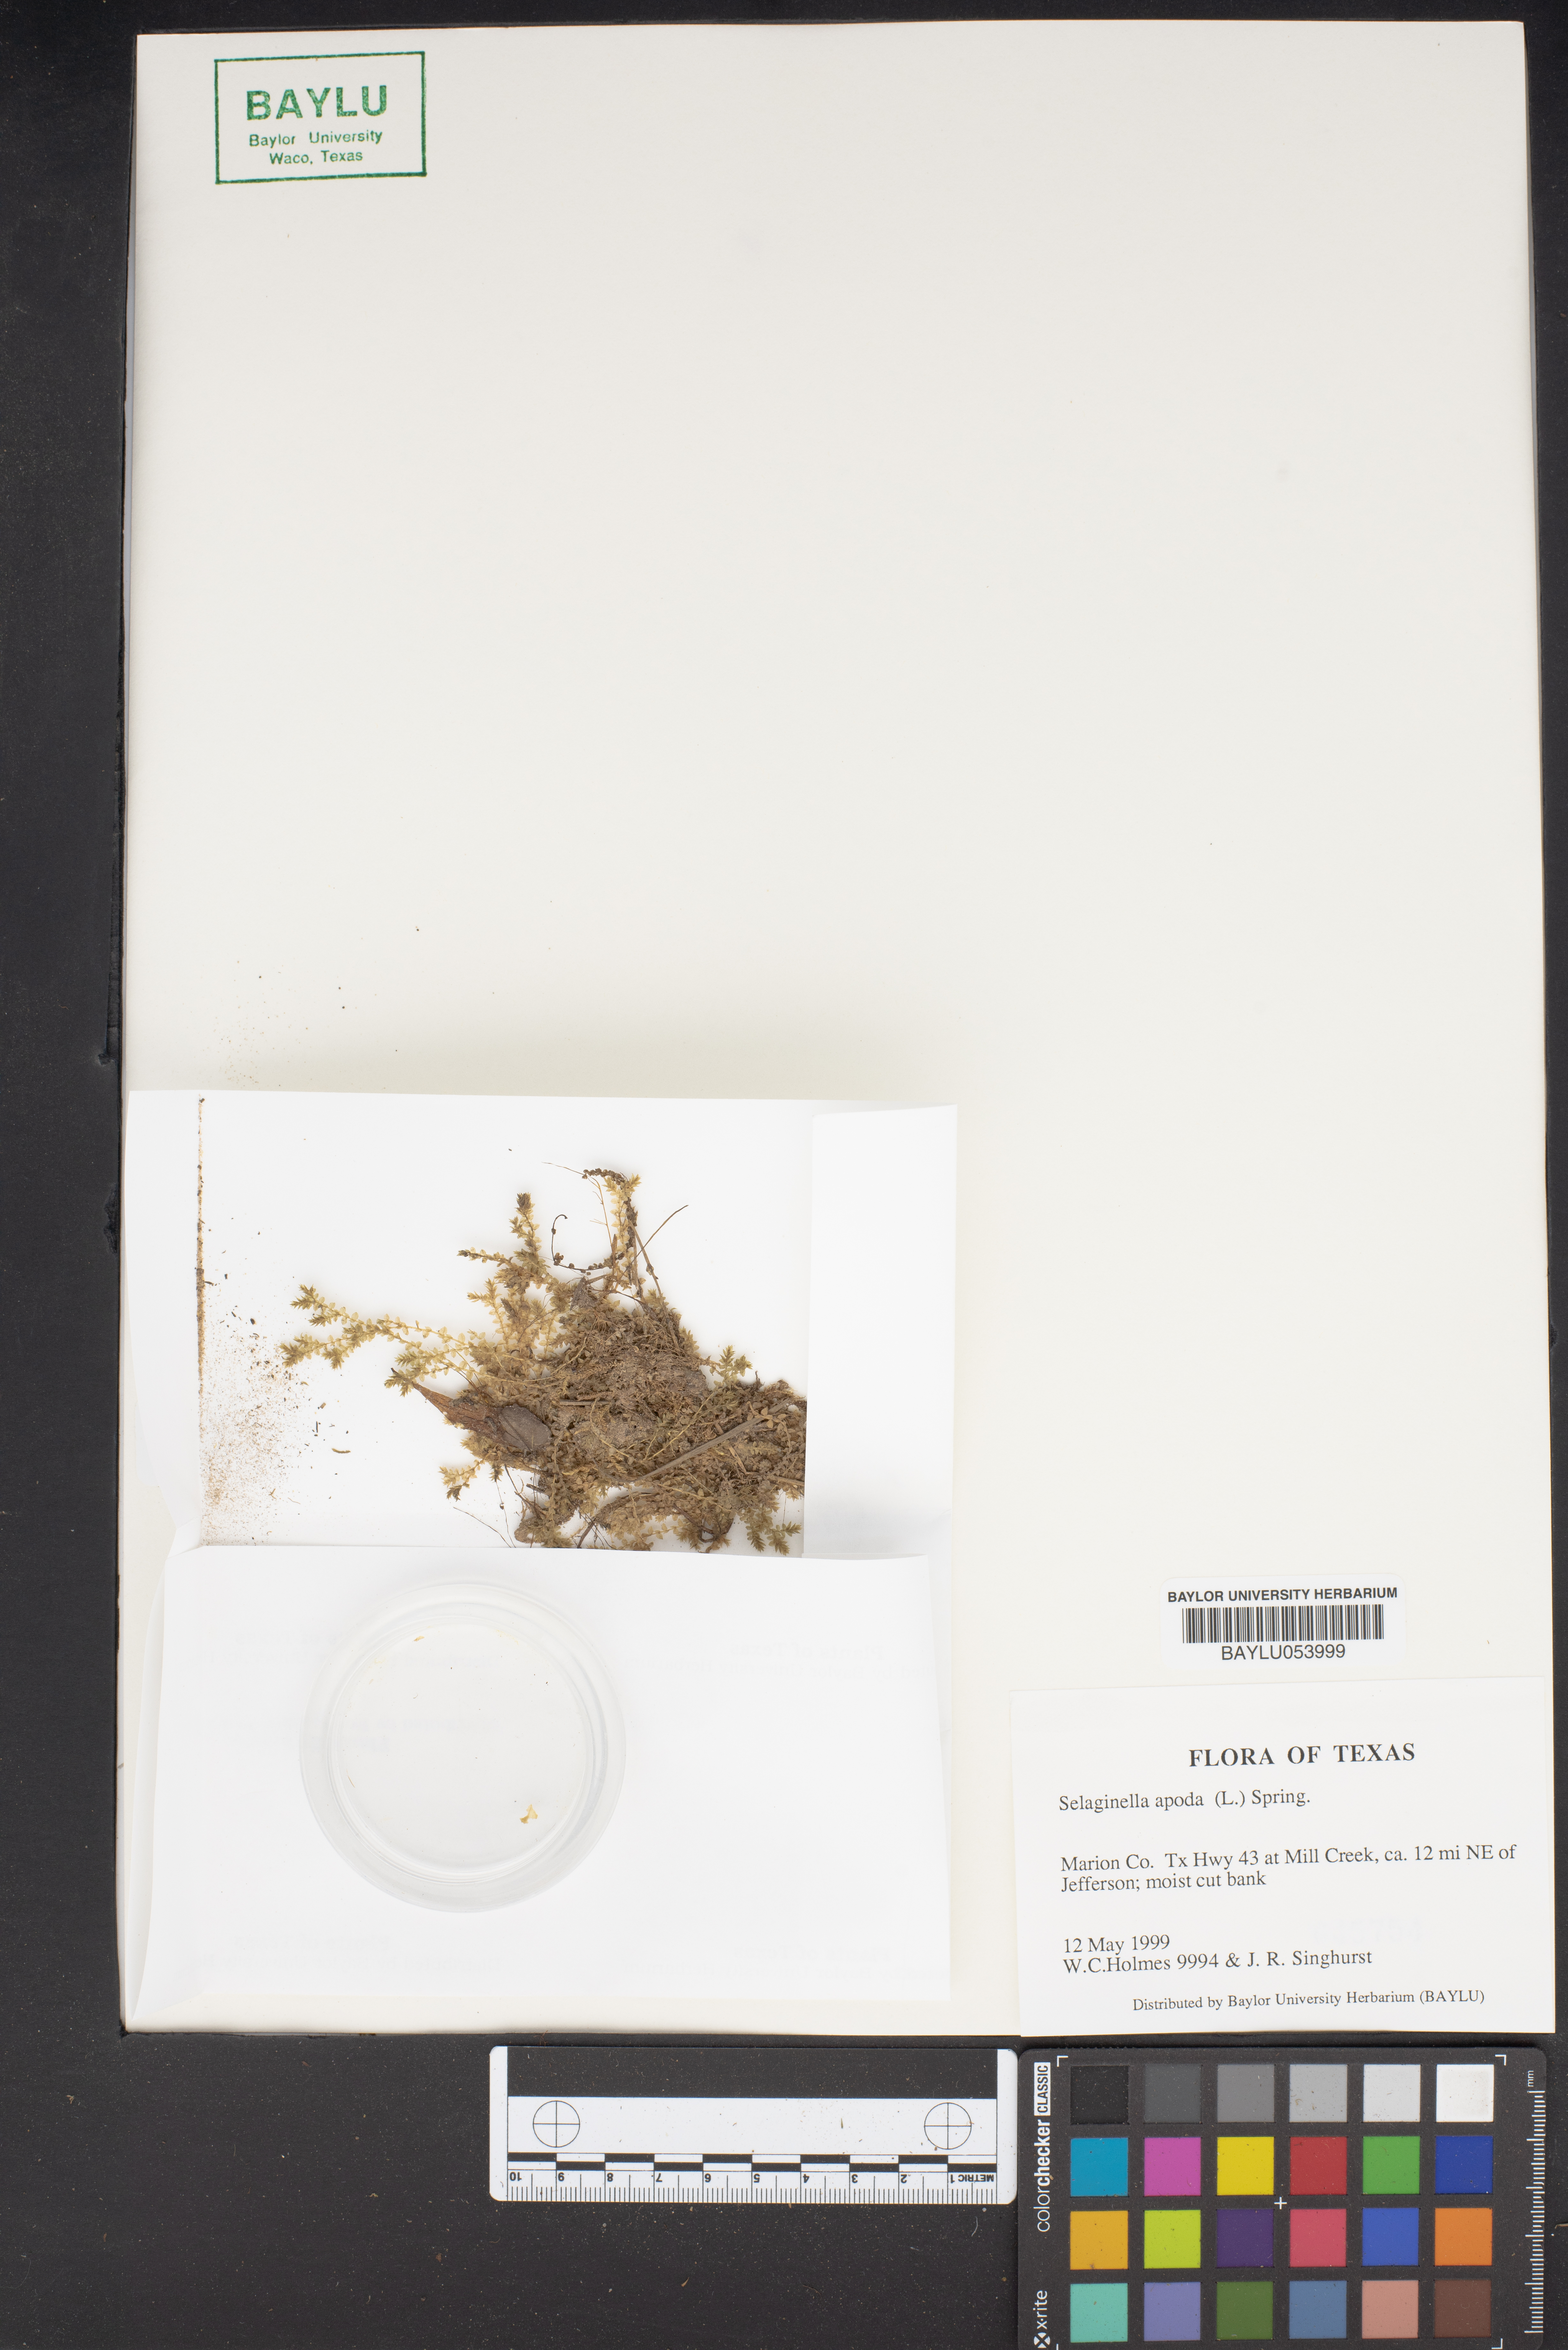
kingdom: Plantae
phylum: Tracheophyta
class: Lycopodiopsida
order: Selaginellales
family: Selaginellaceae
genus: Selaginella
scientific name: Selaginella apoda
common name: Creeping spikemoss
